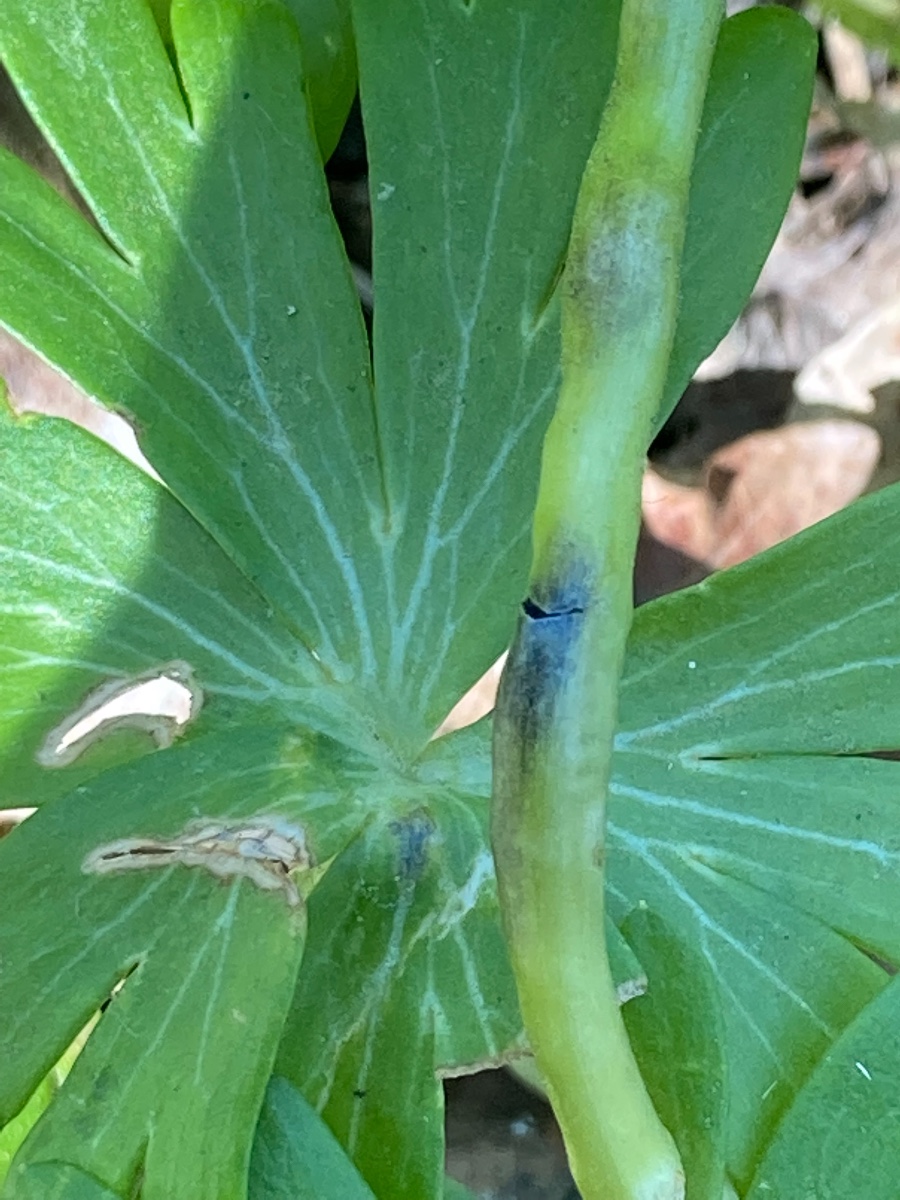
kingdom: Fungi
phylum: Basidiomycota
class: Ustilaginomycetes
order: Urocystidales
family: Urocystidaceae
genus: Urocystis
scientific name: Urocystis eranthidis
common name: erantis-brand
